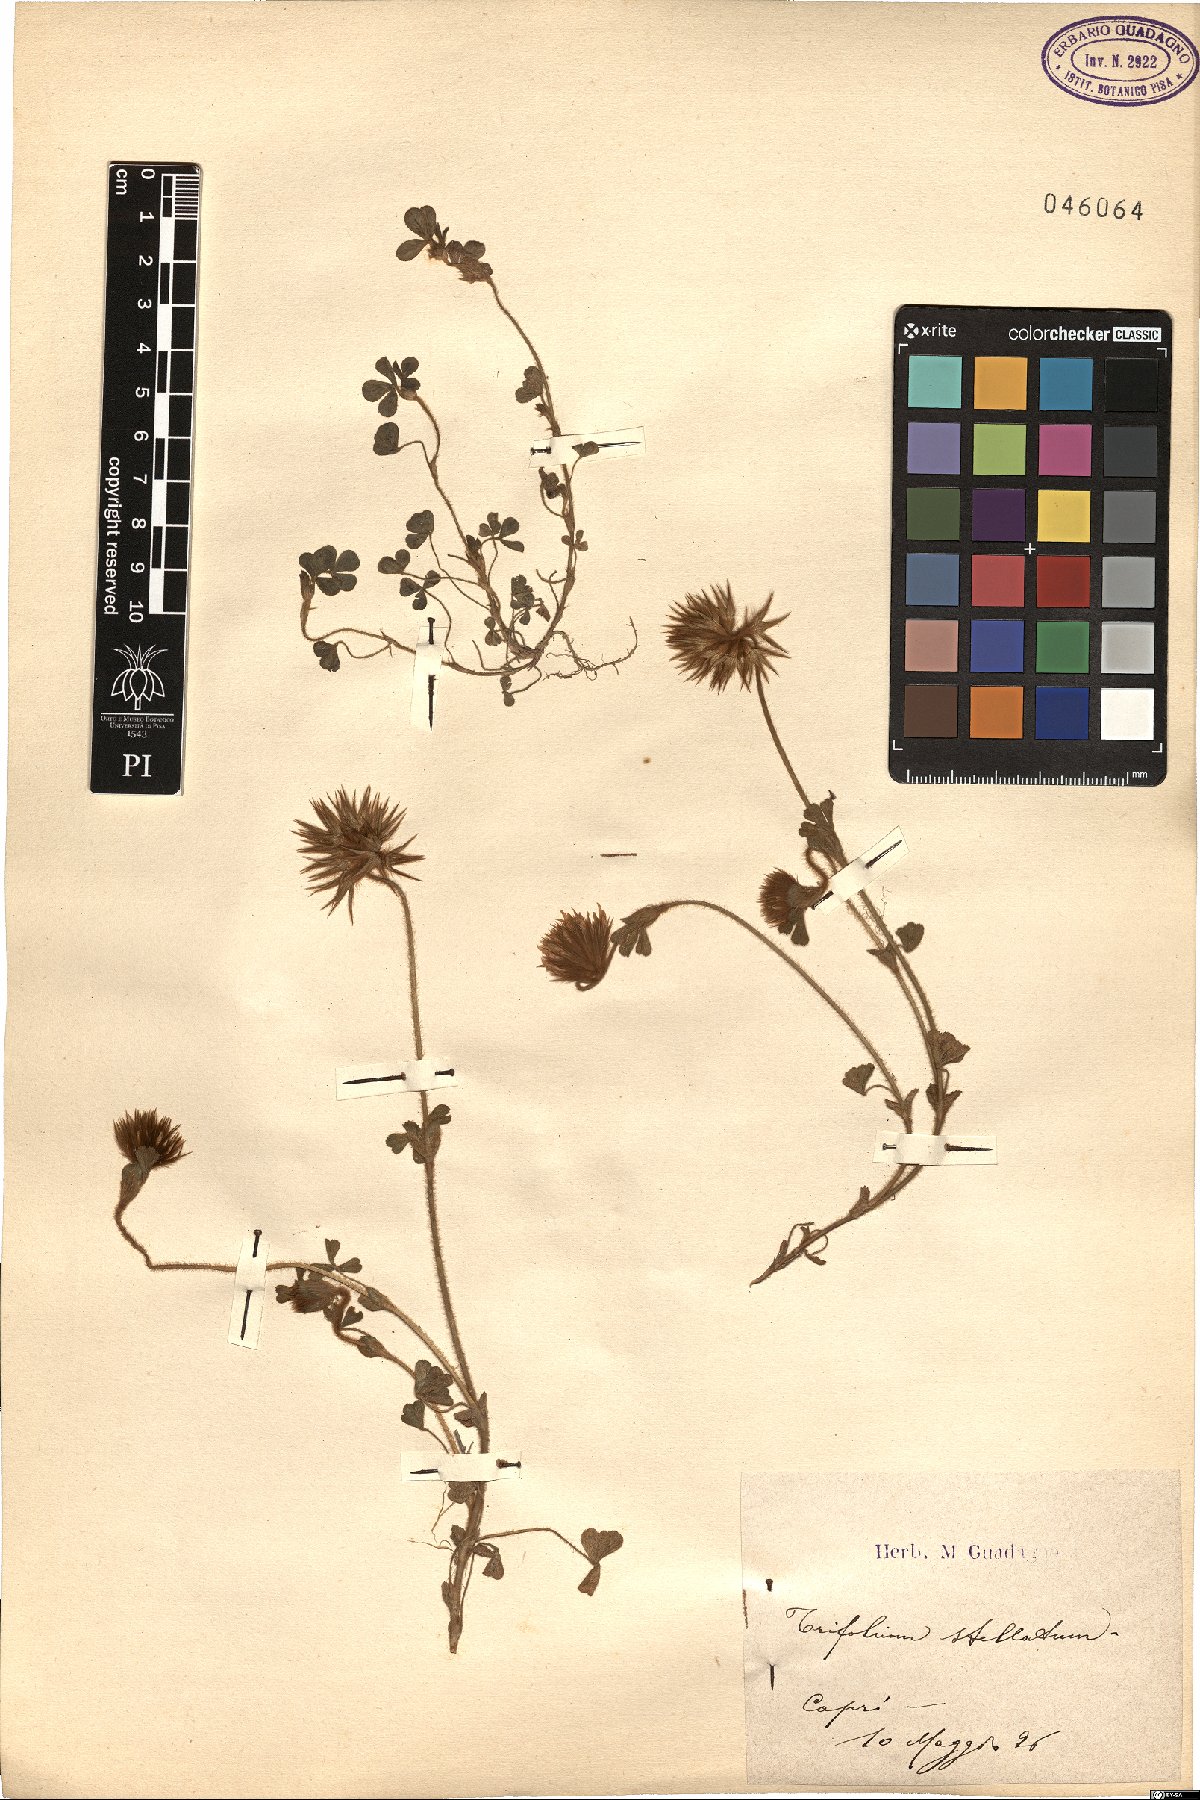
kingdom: Plantae
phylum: Tracheophyta
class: Magnoliopsida
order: Fabales
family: Fabaceae
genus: Trifolium
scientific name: Trifolium stellatum
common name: Starry clover
